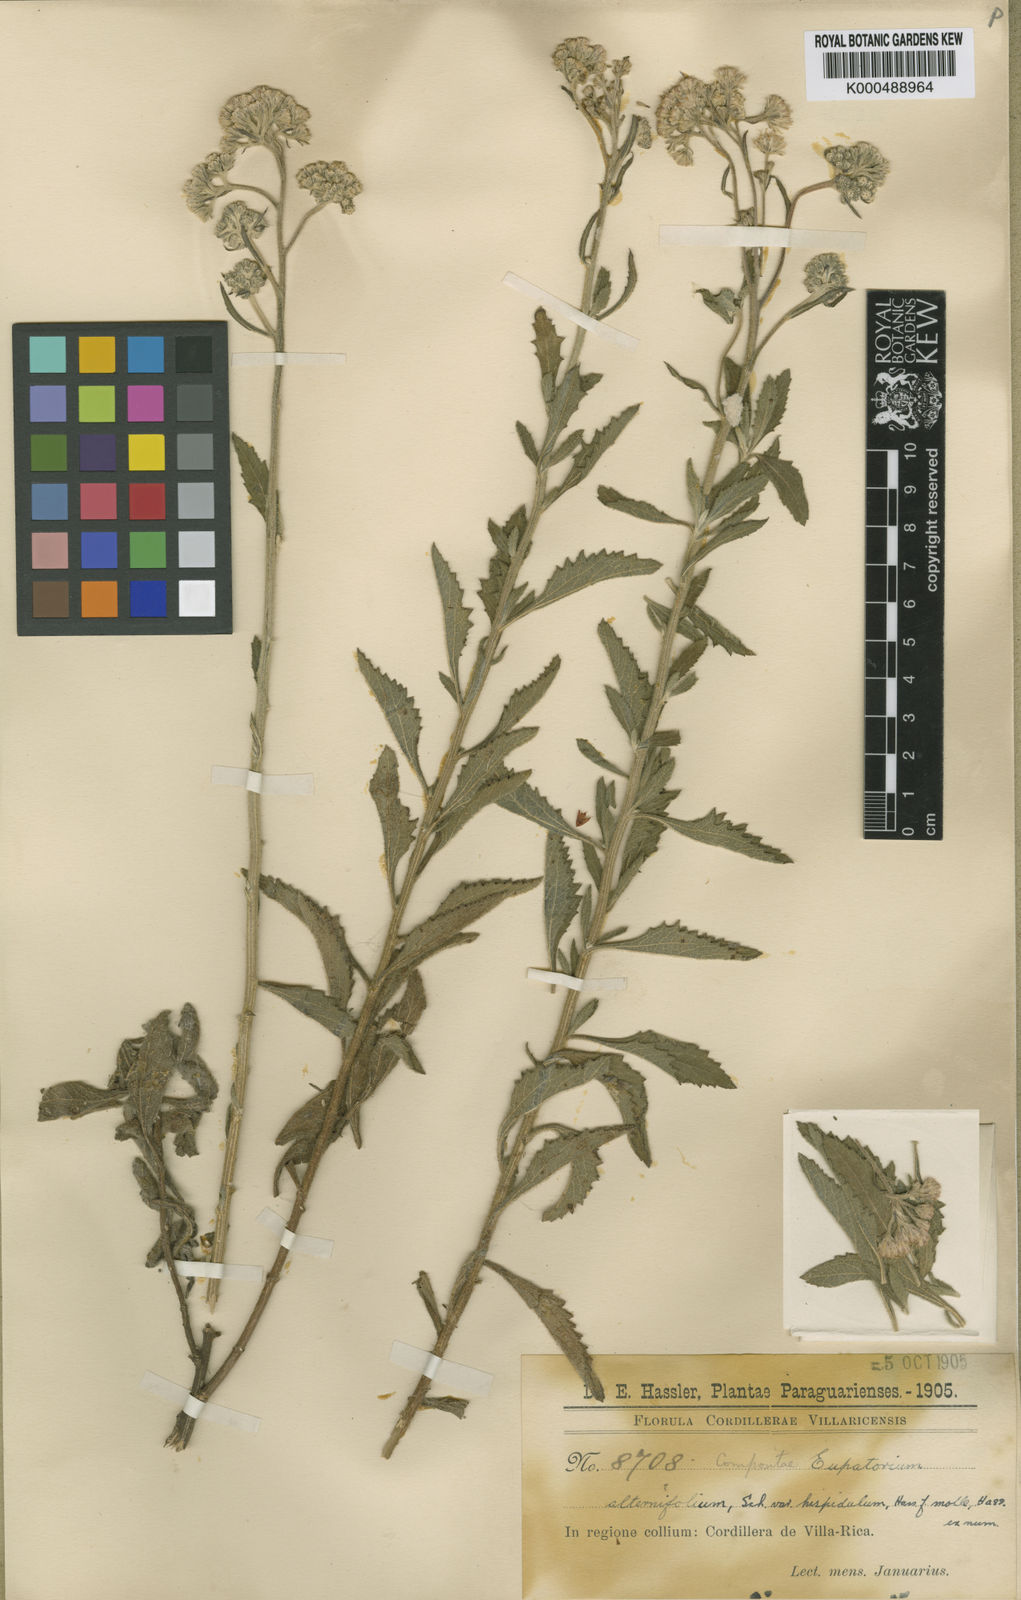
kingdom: Plantae
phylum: Tracheophyta
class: Magnoliopsida
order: Asterales
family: Asteraceae
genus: Gyptis
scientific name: Gyptis lanigera
